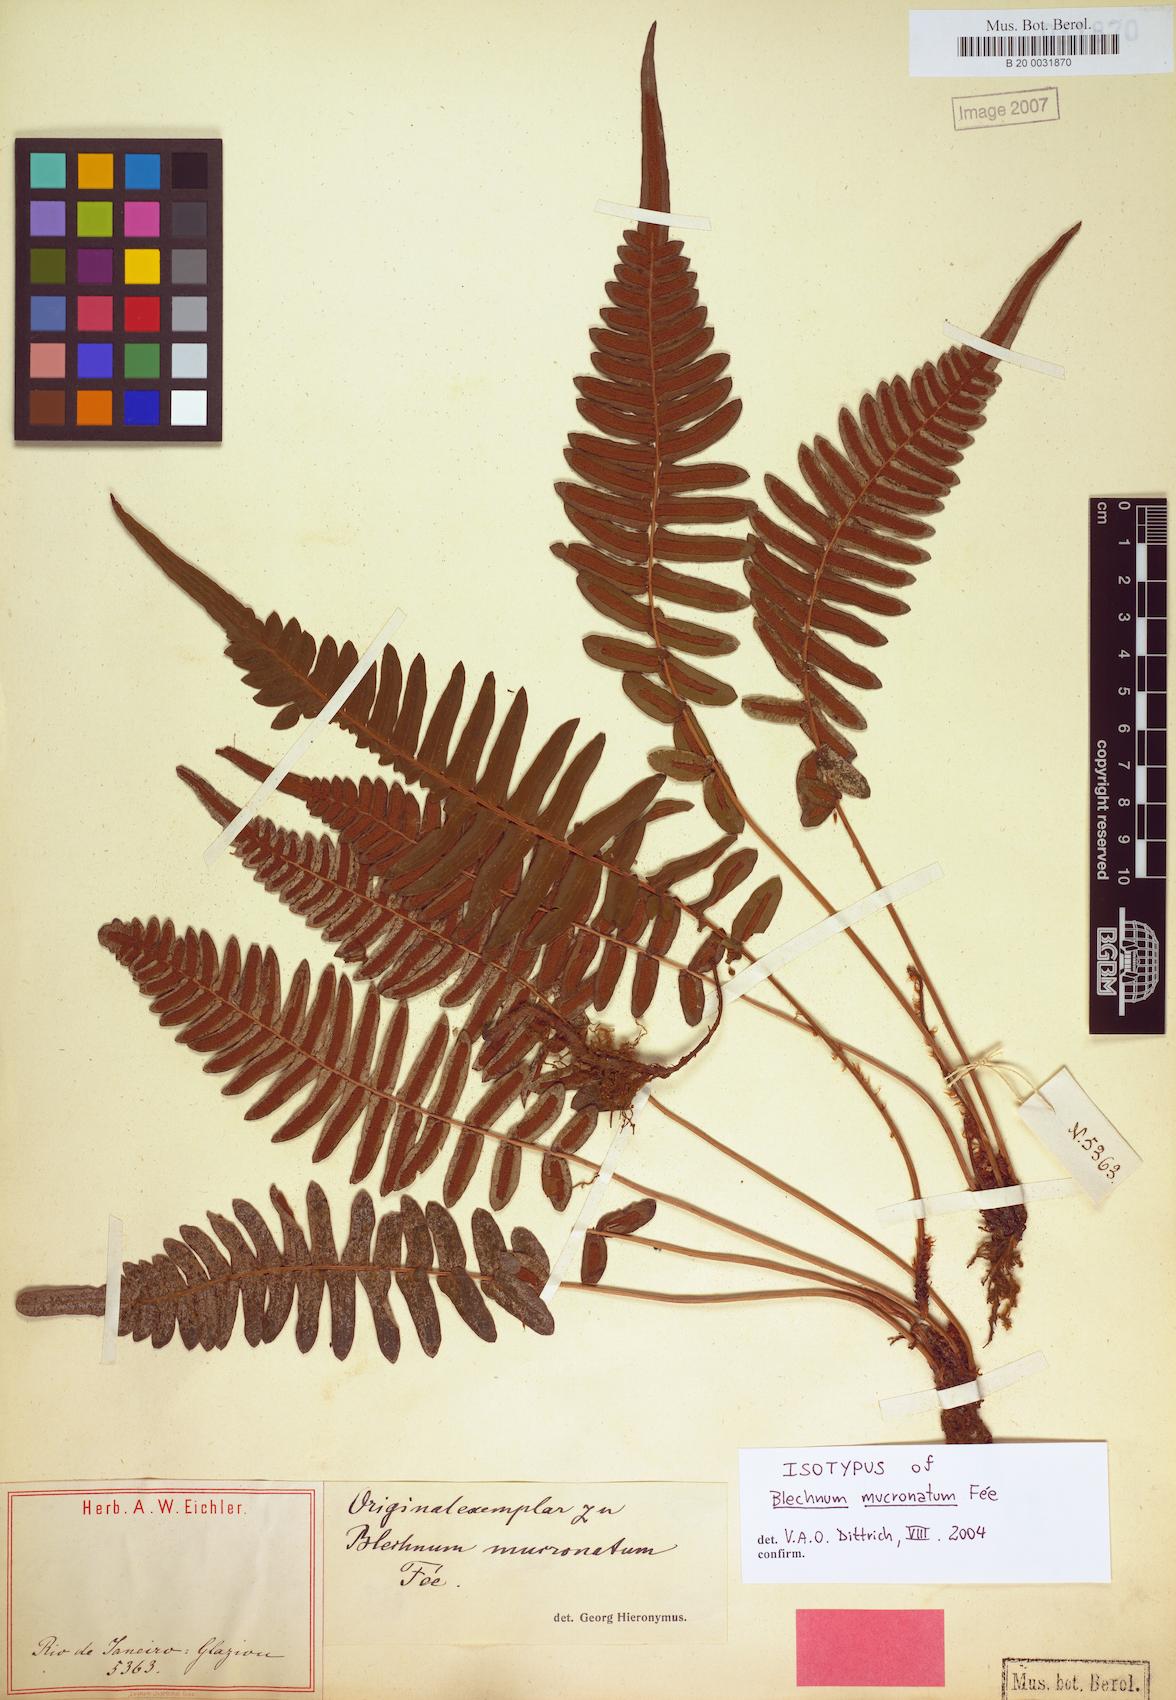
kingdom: Plantae
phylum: Tracheophyta
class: Polypodiopsida
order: Polypodiales
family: Blechnaceae
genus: Blechnum
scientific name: Blechnum occidentale
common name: Hammock fern
